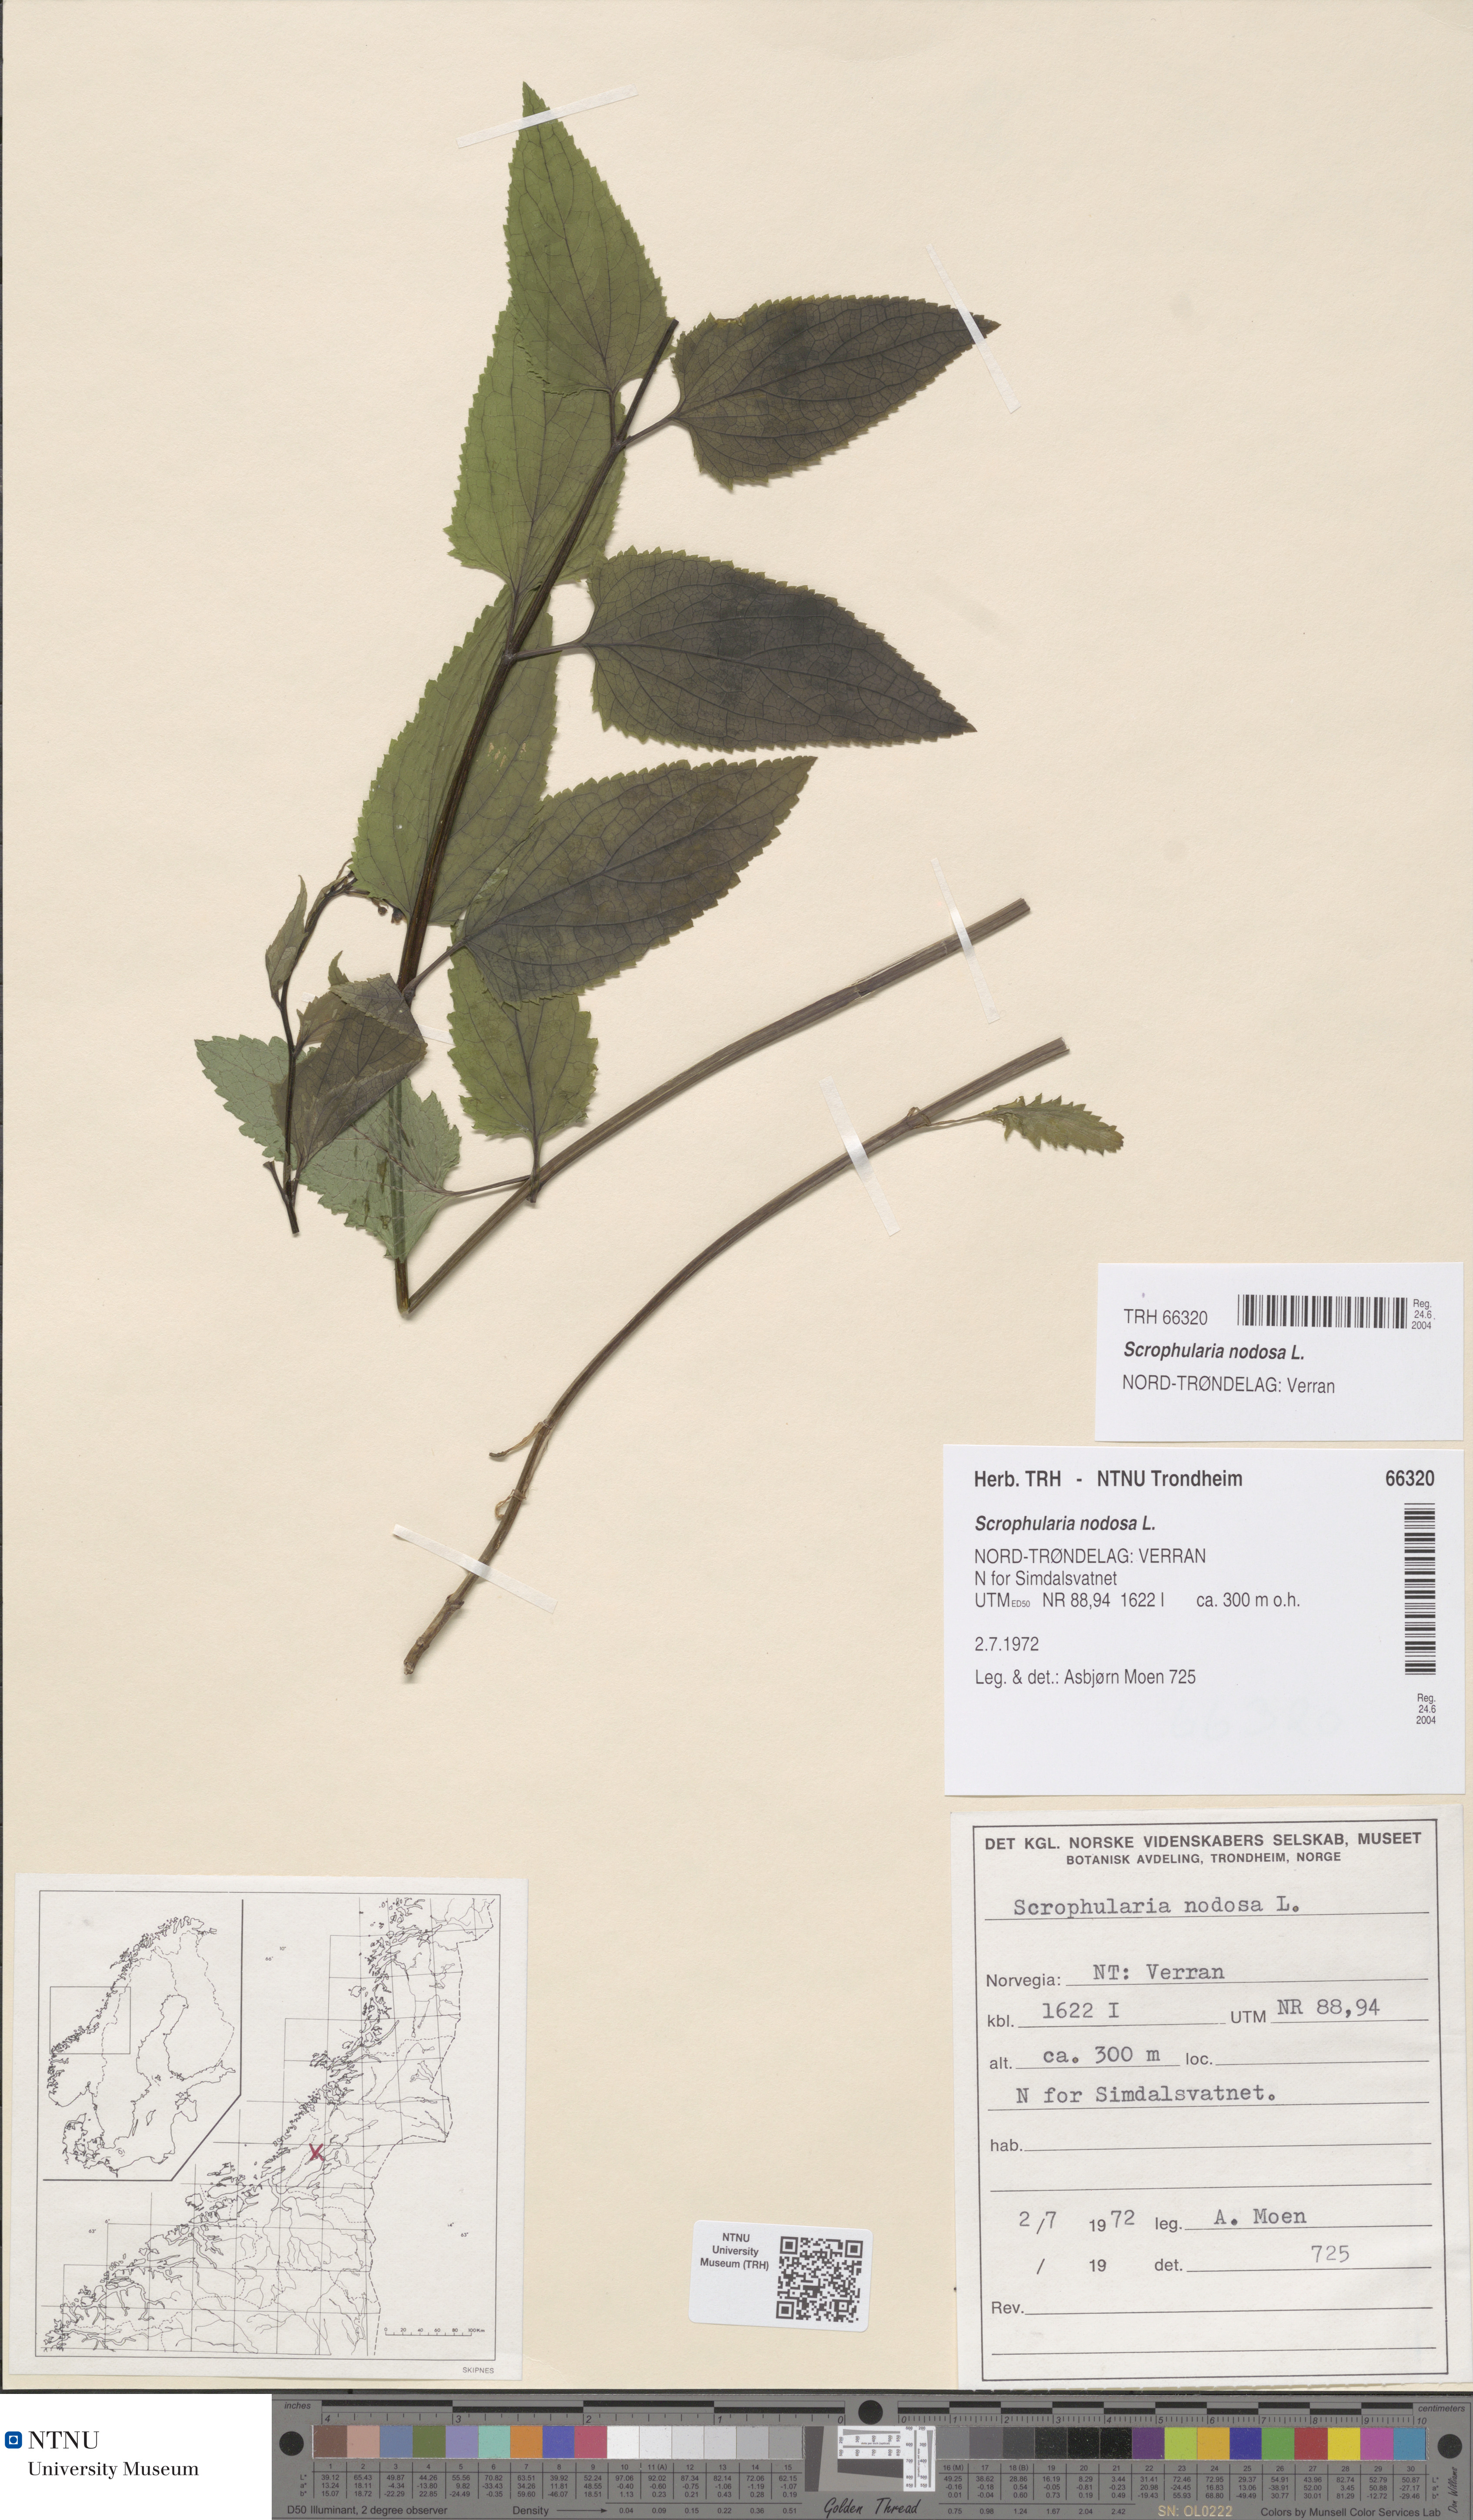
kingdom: Plantae
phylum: Tracheophyta
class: Magnoliopsida
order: Lamiales
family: Scrophulariaceae
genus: Scrophularia
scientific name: Scrophularia nodosa
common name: Common figwort
